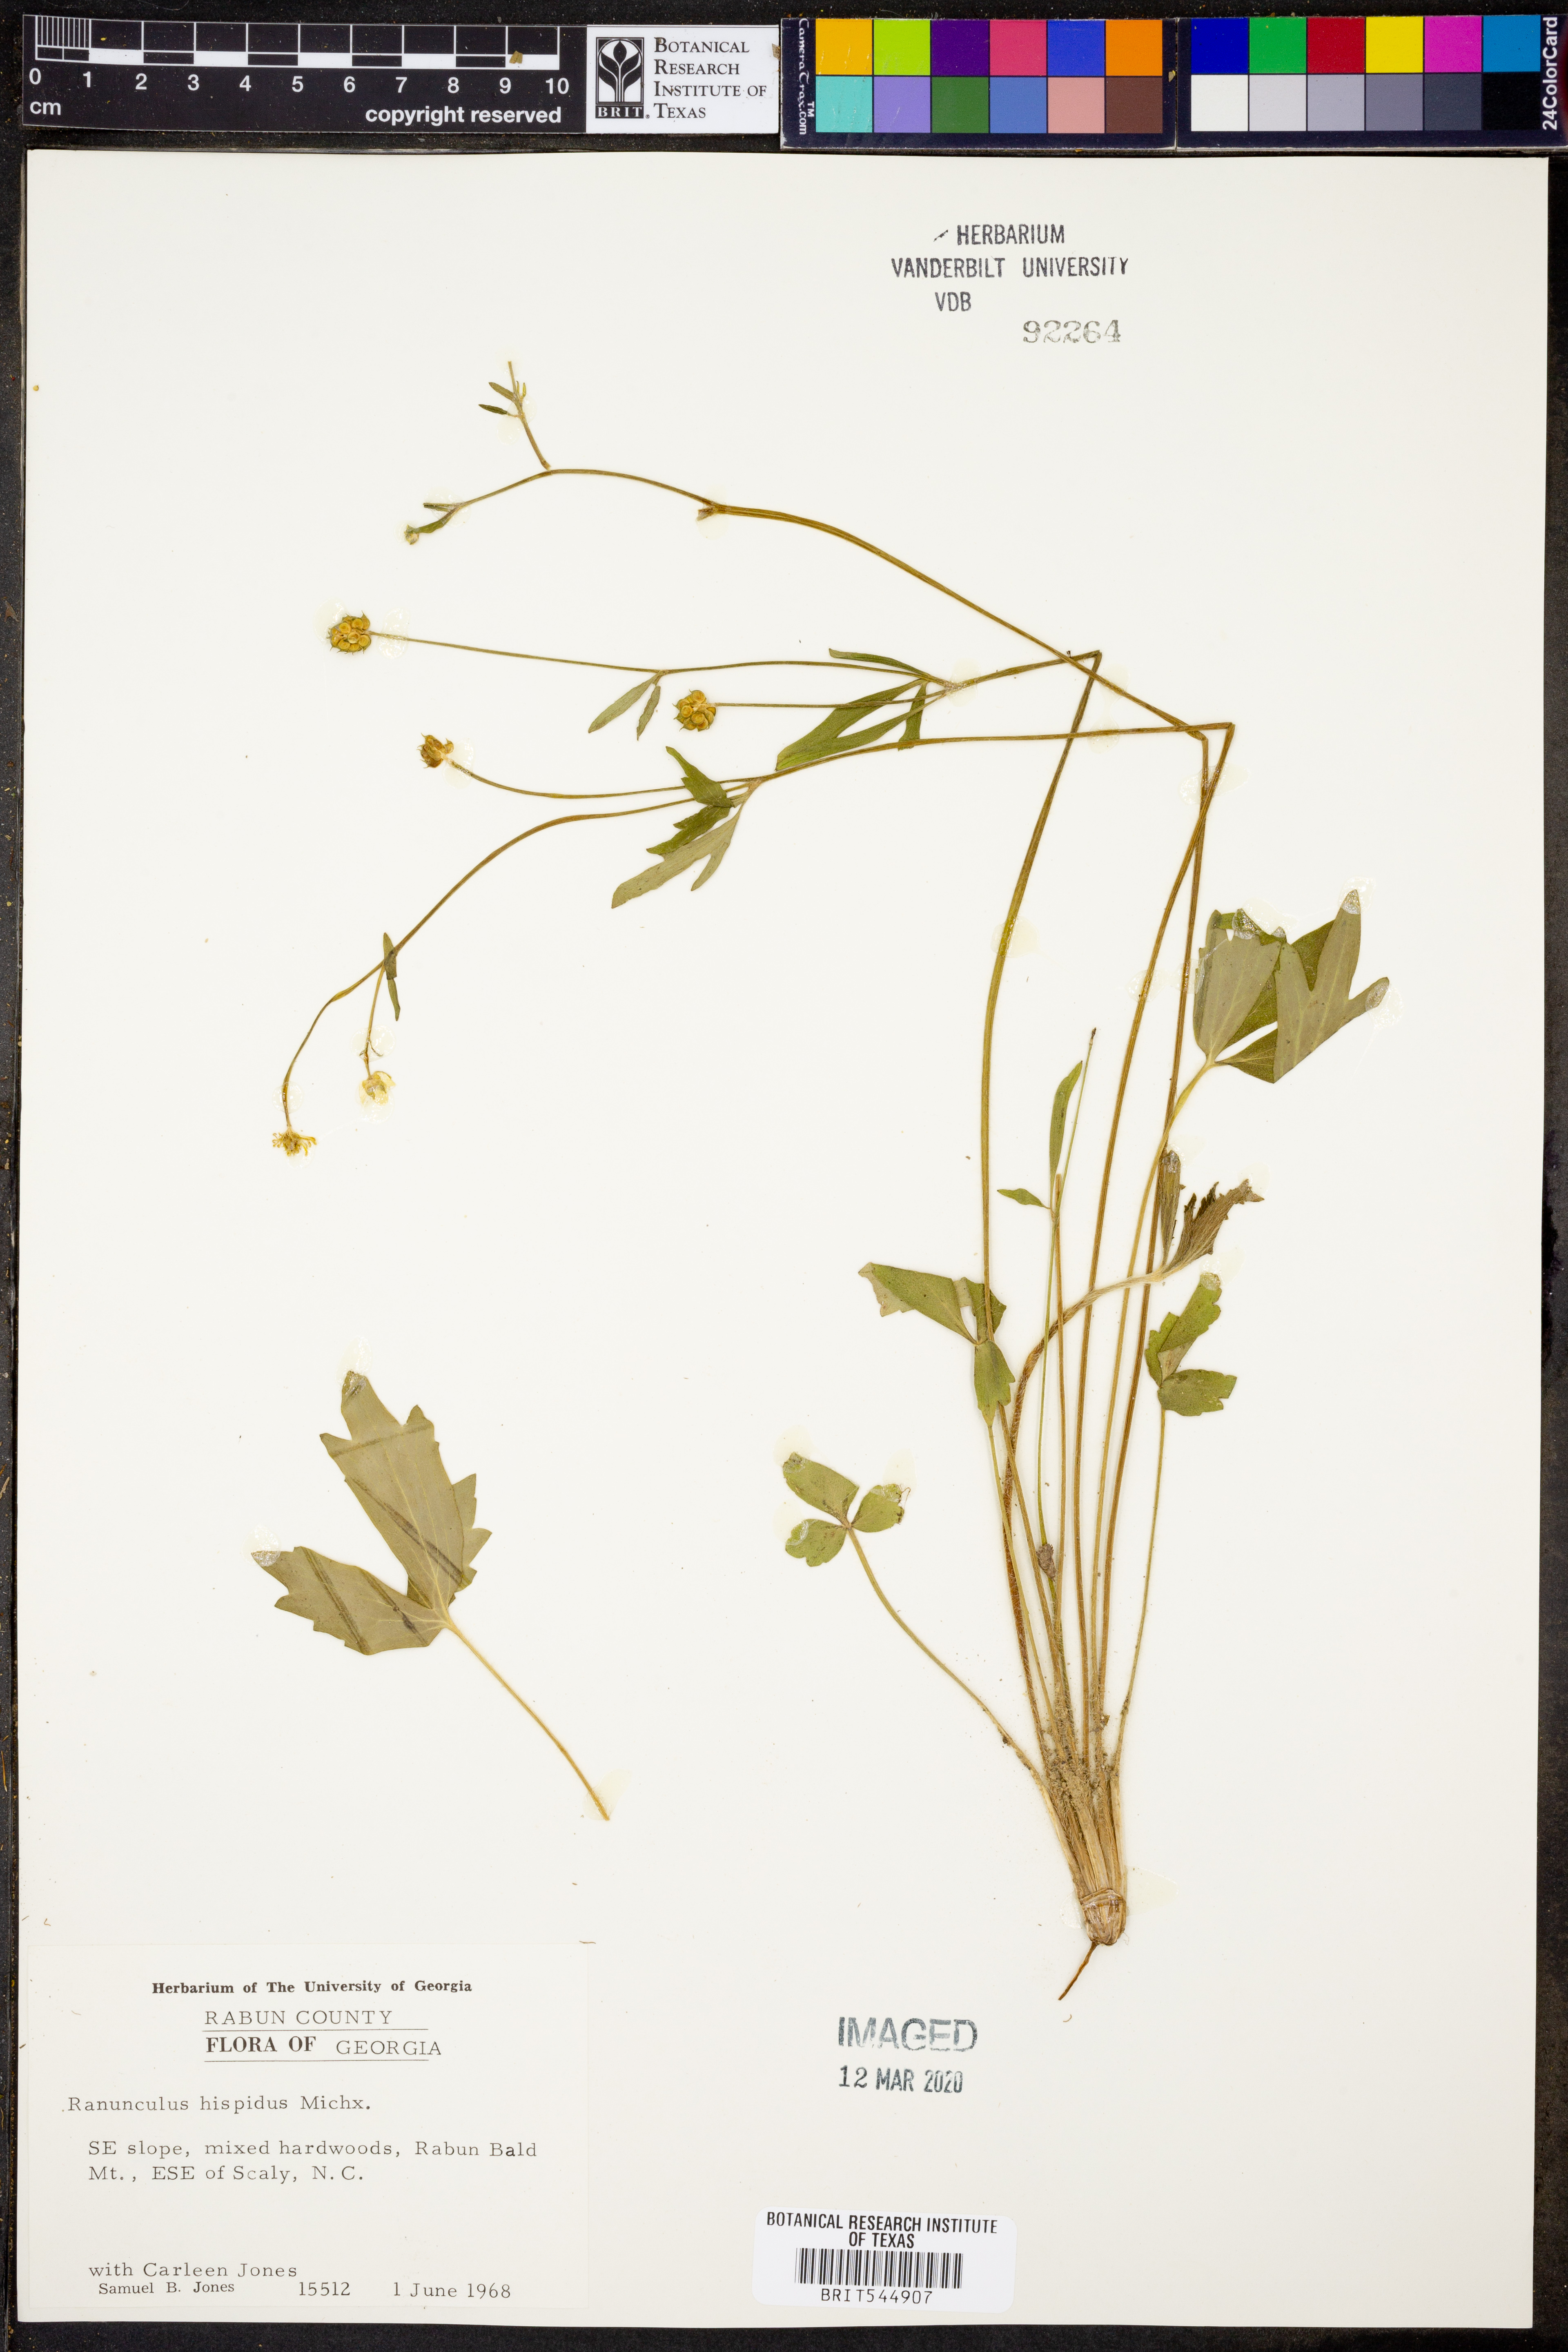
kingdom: Plantae
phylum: Tracheophyta
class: Magnoliopsida
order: Ranunculales
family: Ranunculaceae
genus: Ranunculus
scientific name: Ranunculus hispidus
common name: Bristly buttercup
